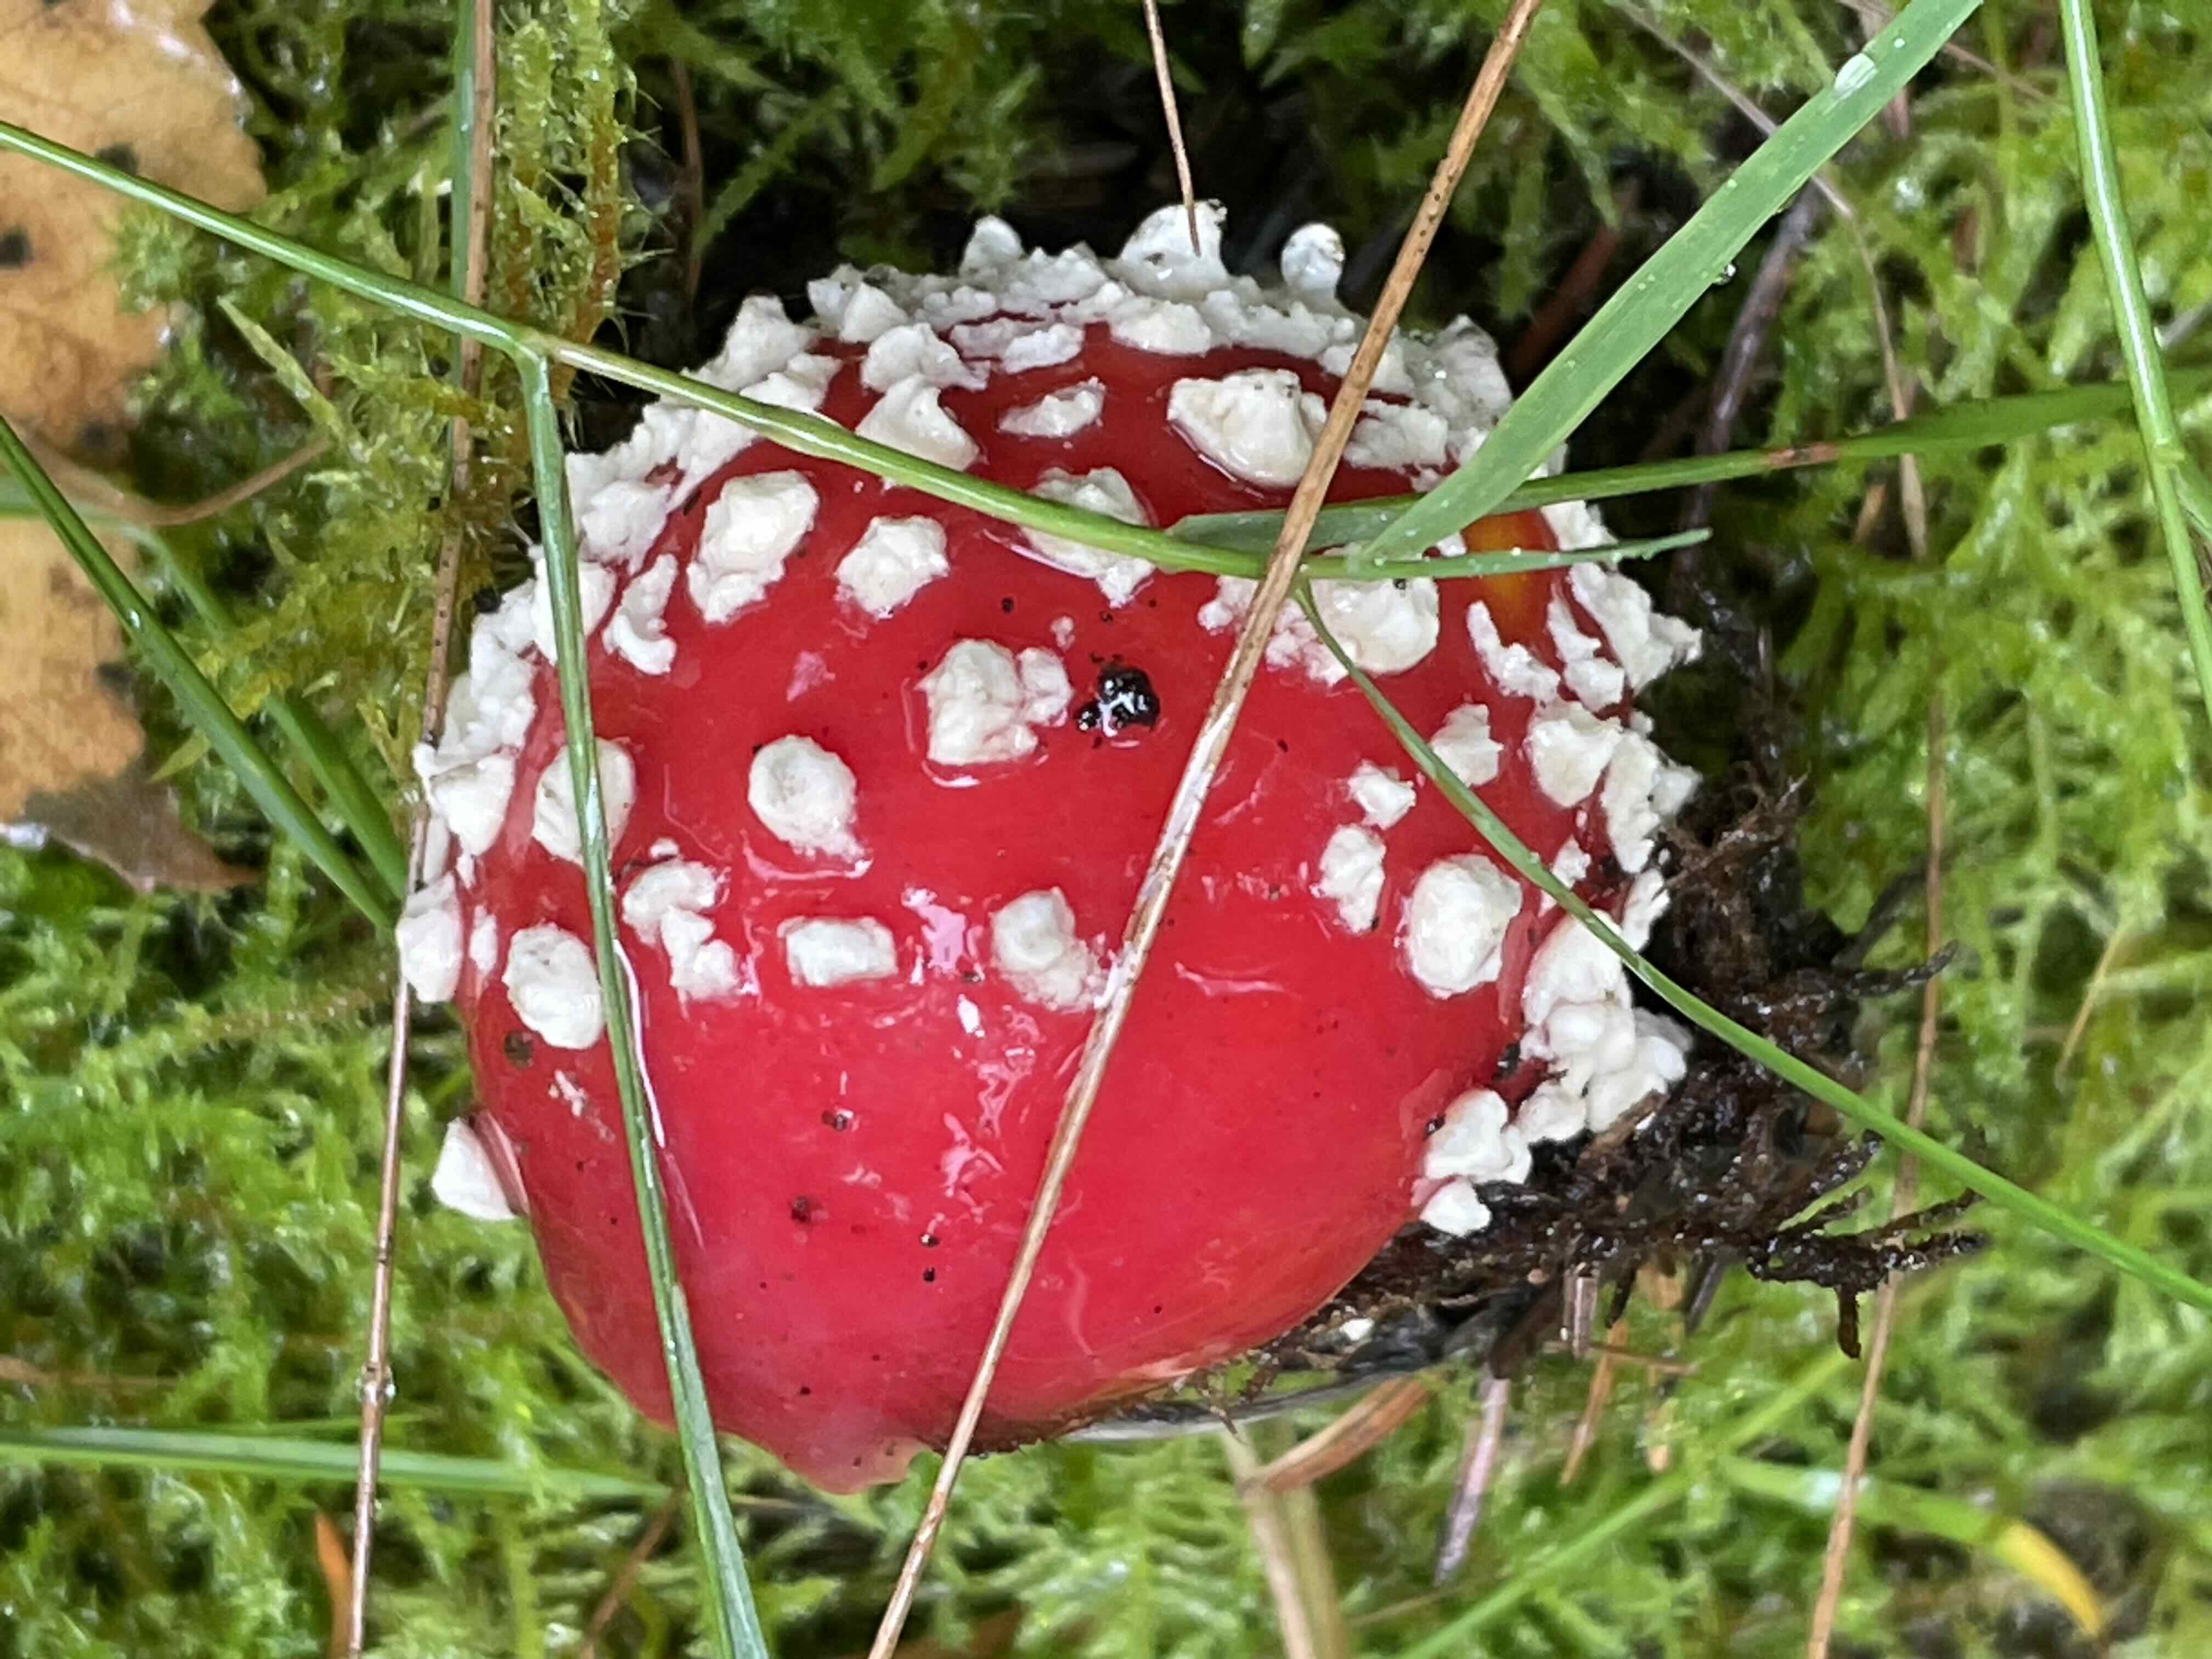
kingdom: Fungi
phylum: Basidiomycota
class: Agaricomycetes
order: Agaricales
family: Amanitaceae
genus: Amanita
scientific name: Amanita muscaria
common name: rød fluesvamp
